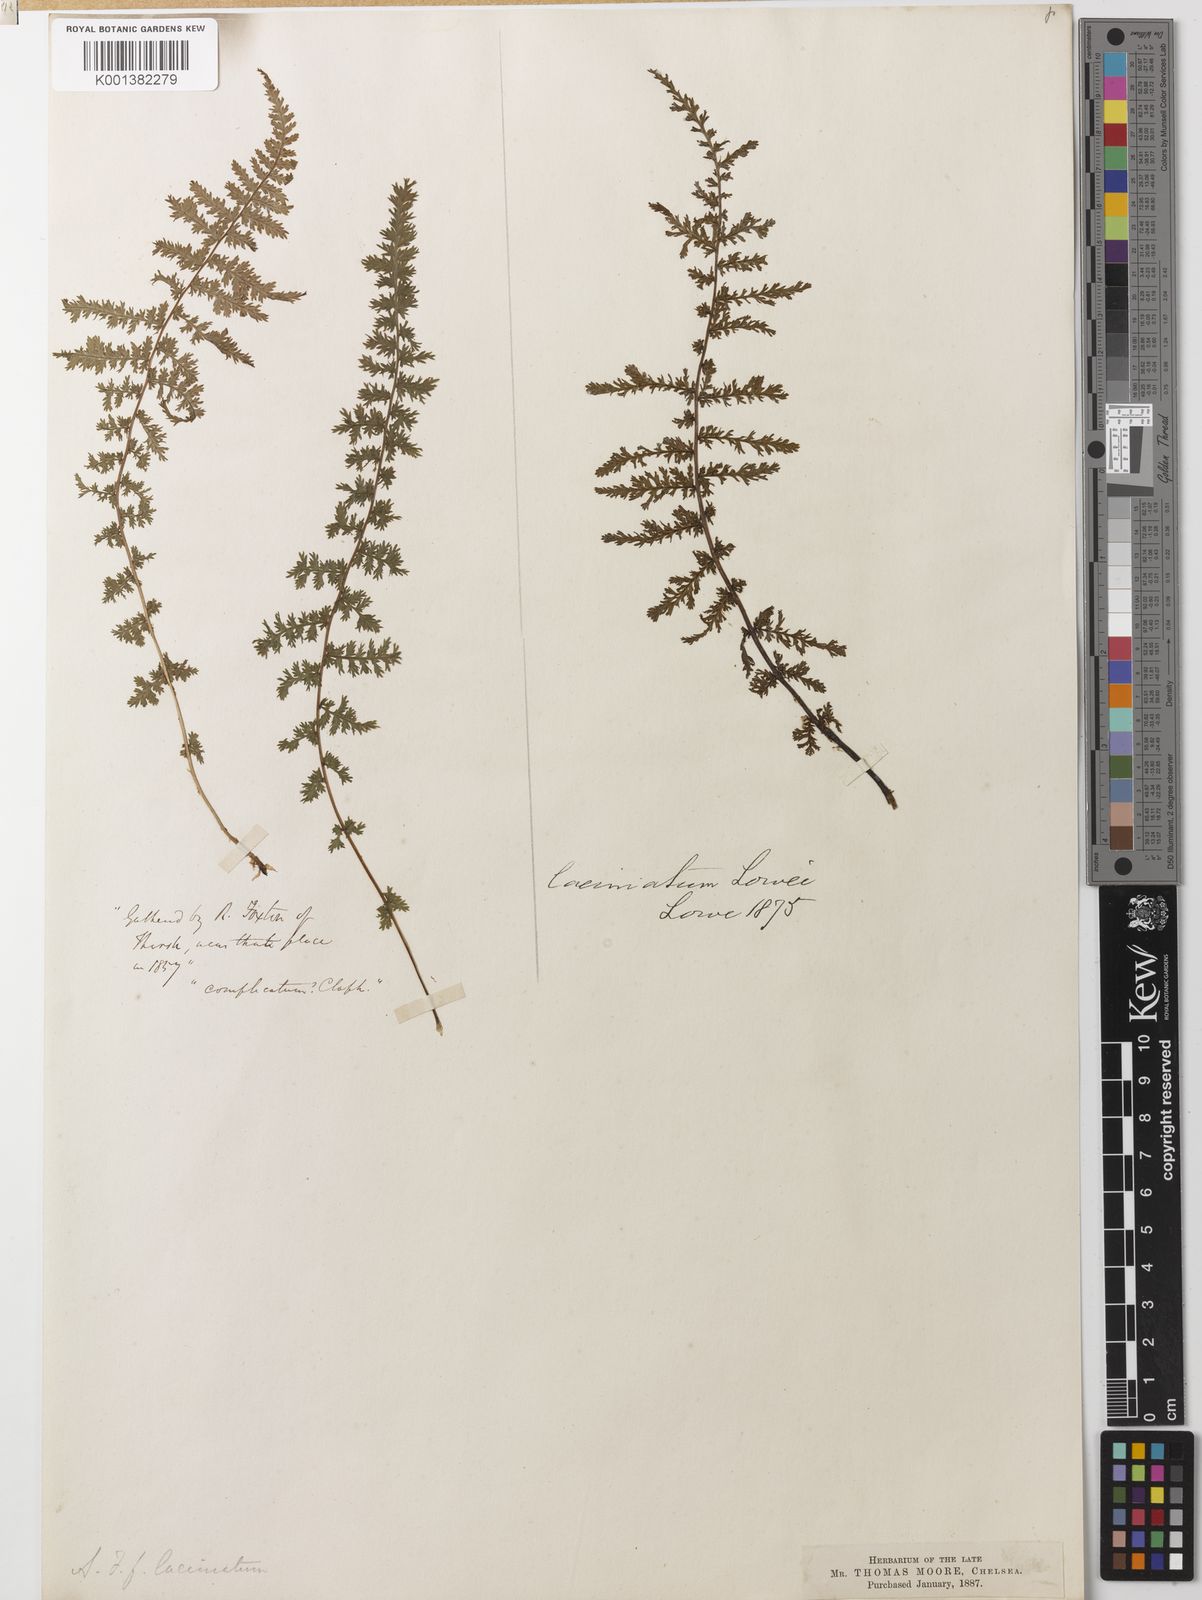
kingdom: Plantae
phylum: Tracheophyta
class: Polypodiopsida
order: Polypodiales
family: Athyriaceae
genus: Athyrium
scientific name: Athyrium filix-femina
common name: Lady fern
